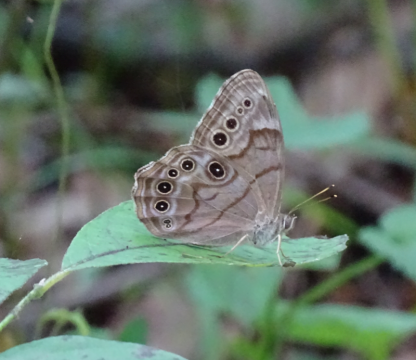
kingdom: Animalia
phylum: Arthropoda
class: Insecta
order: Lepidoptera
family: Nymphalidae
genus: Lethe
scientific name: Lethe anthedon
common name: Northern Pearly-Eye
